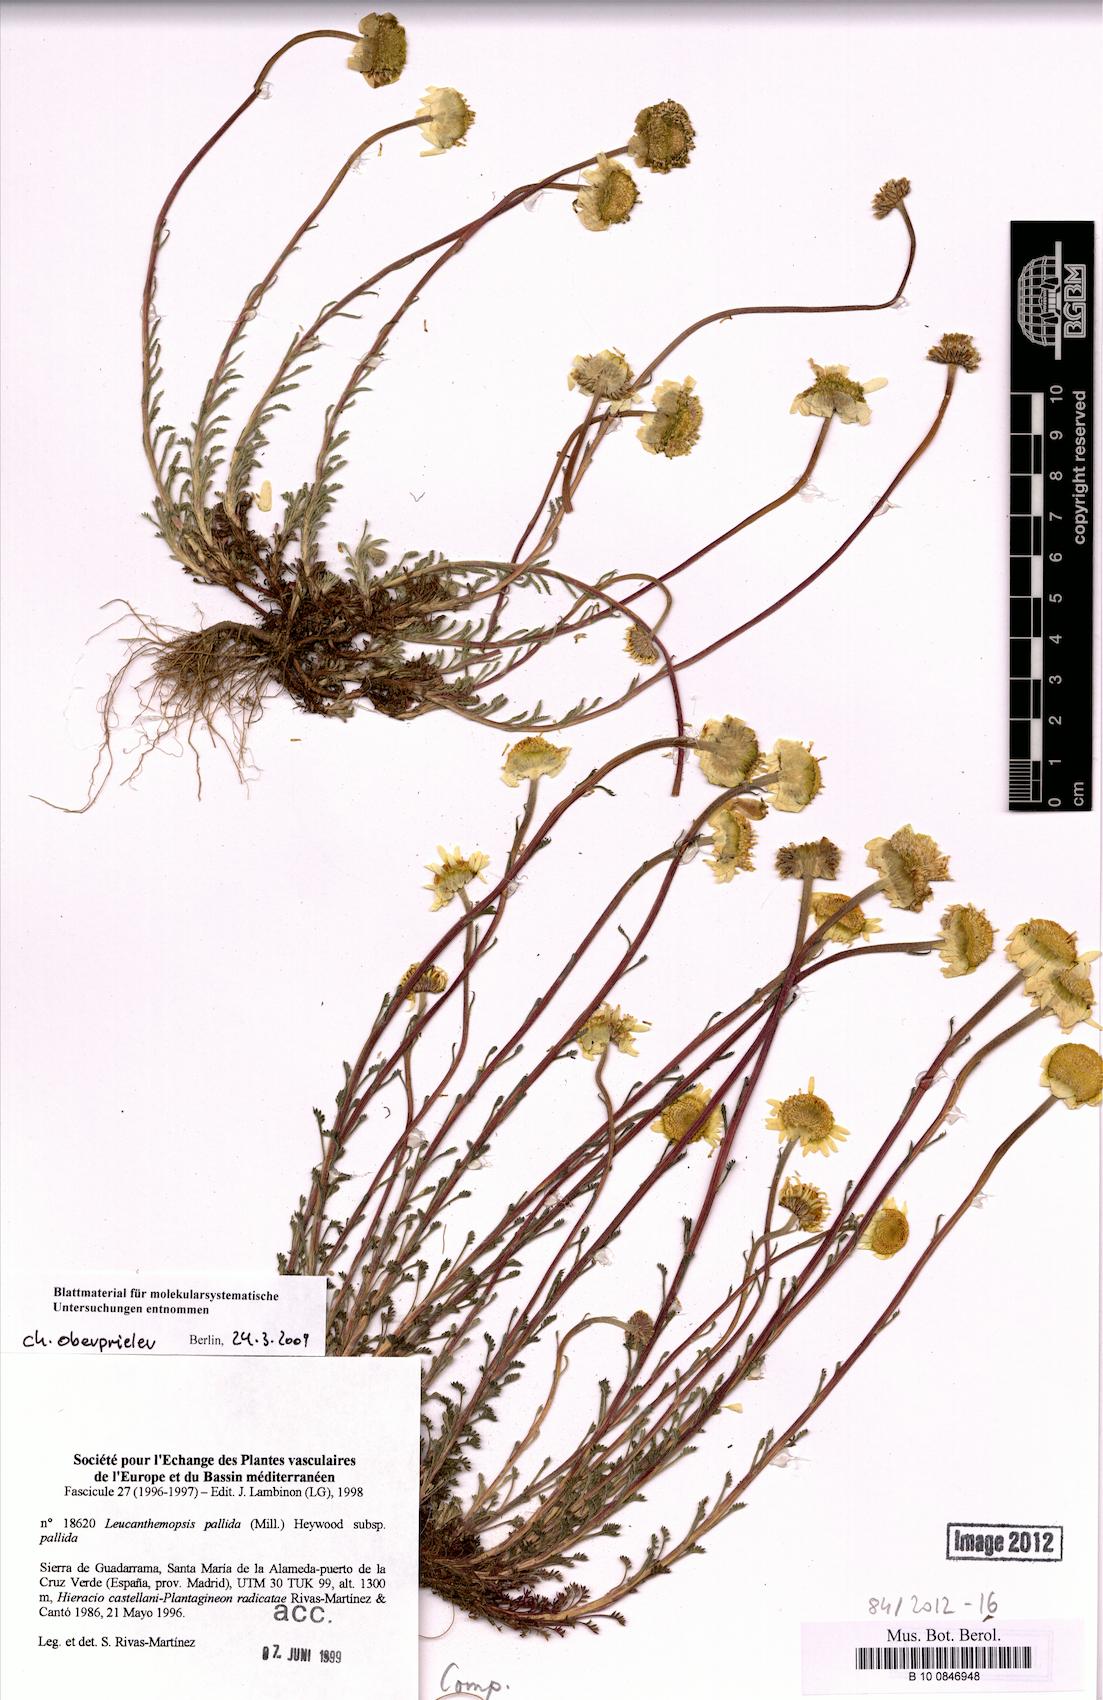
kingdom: Plantae
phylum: Tracheophyta
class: Magnoliopsida
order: Asterales
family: Asteraceae
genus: Leucanthemopsis
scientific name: Leucanthemopsis pulverulenta
